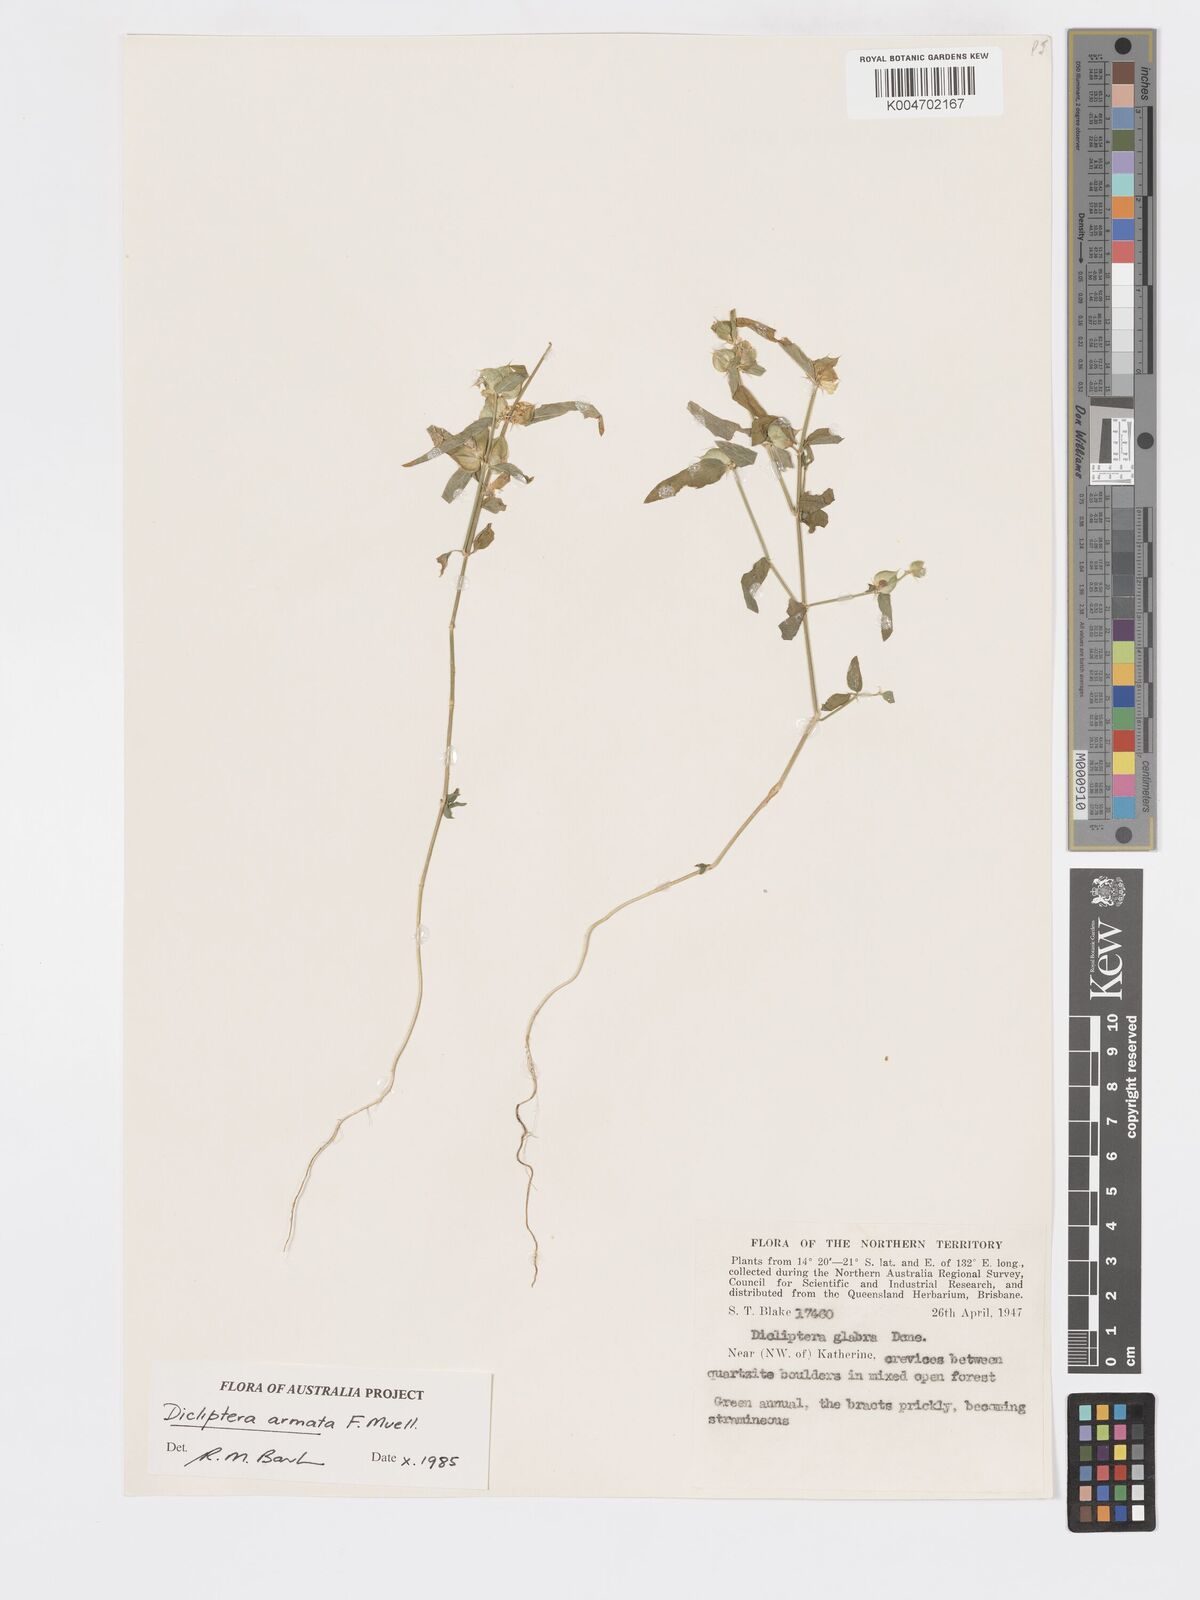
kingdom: Plantae
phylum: Tracheophyta
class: Magnoliopsida
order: Lamiales
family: Acanthaceae
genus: Dicliptera
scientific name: Dicliptera armata
